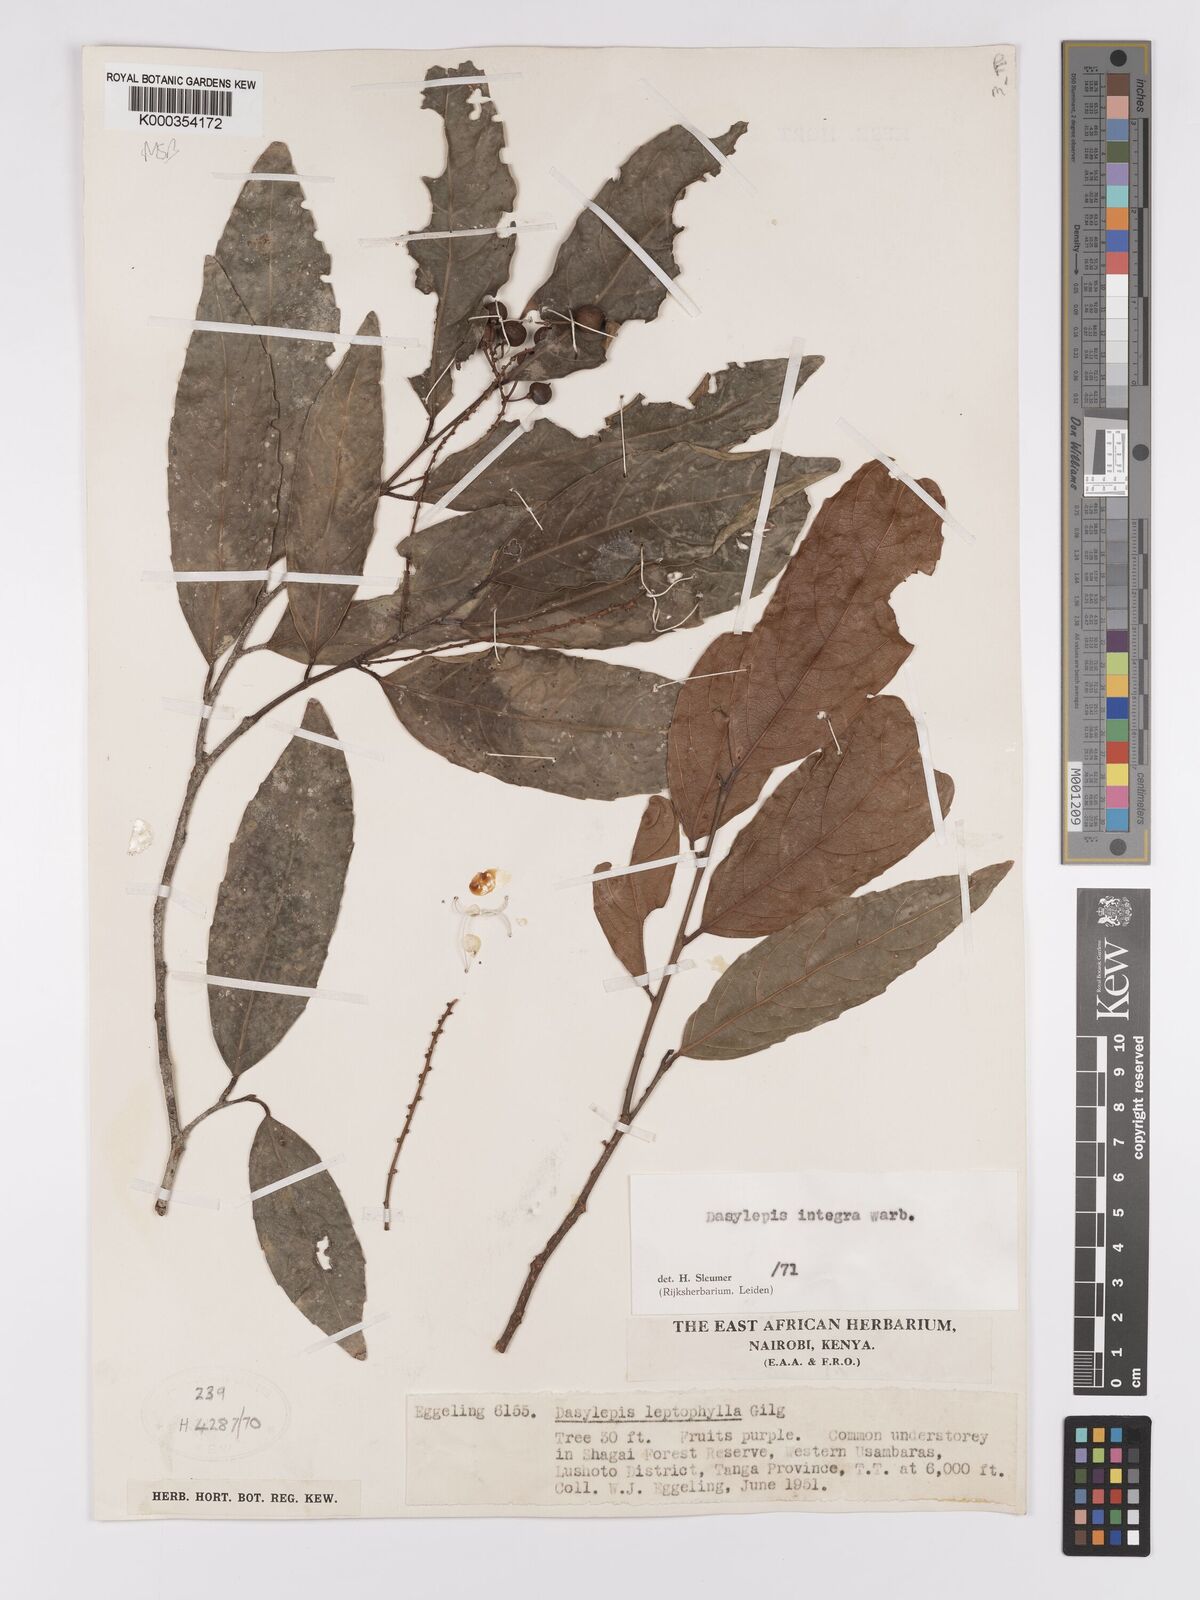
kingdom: Plantae
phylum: Tracheophyta
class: Magnoliopsida
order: Malpighiales
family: Achariaceae
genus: Dasylepis
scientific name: Dasylepis integra
